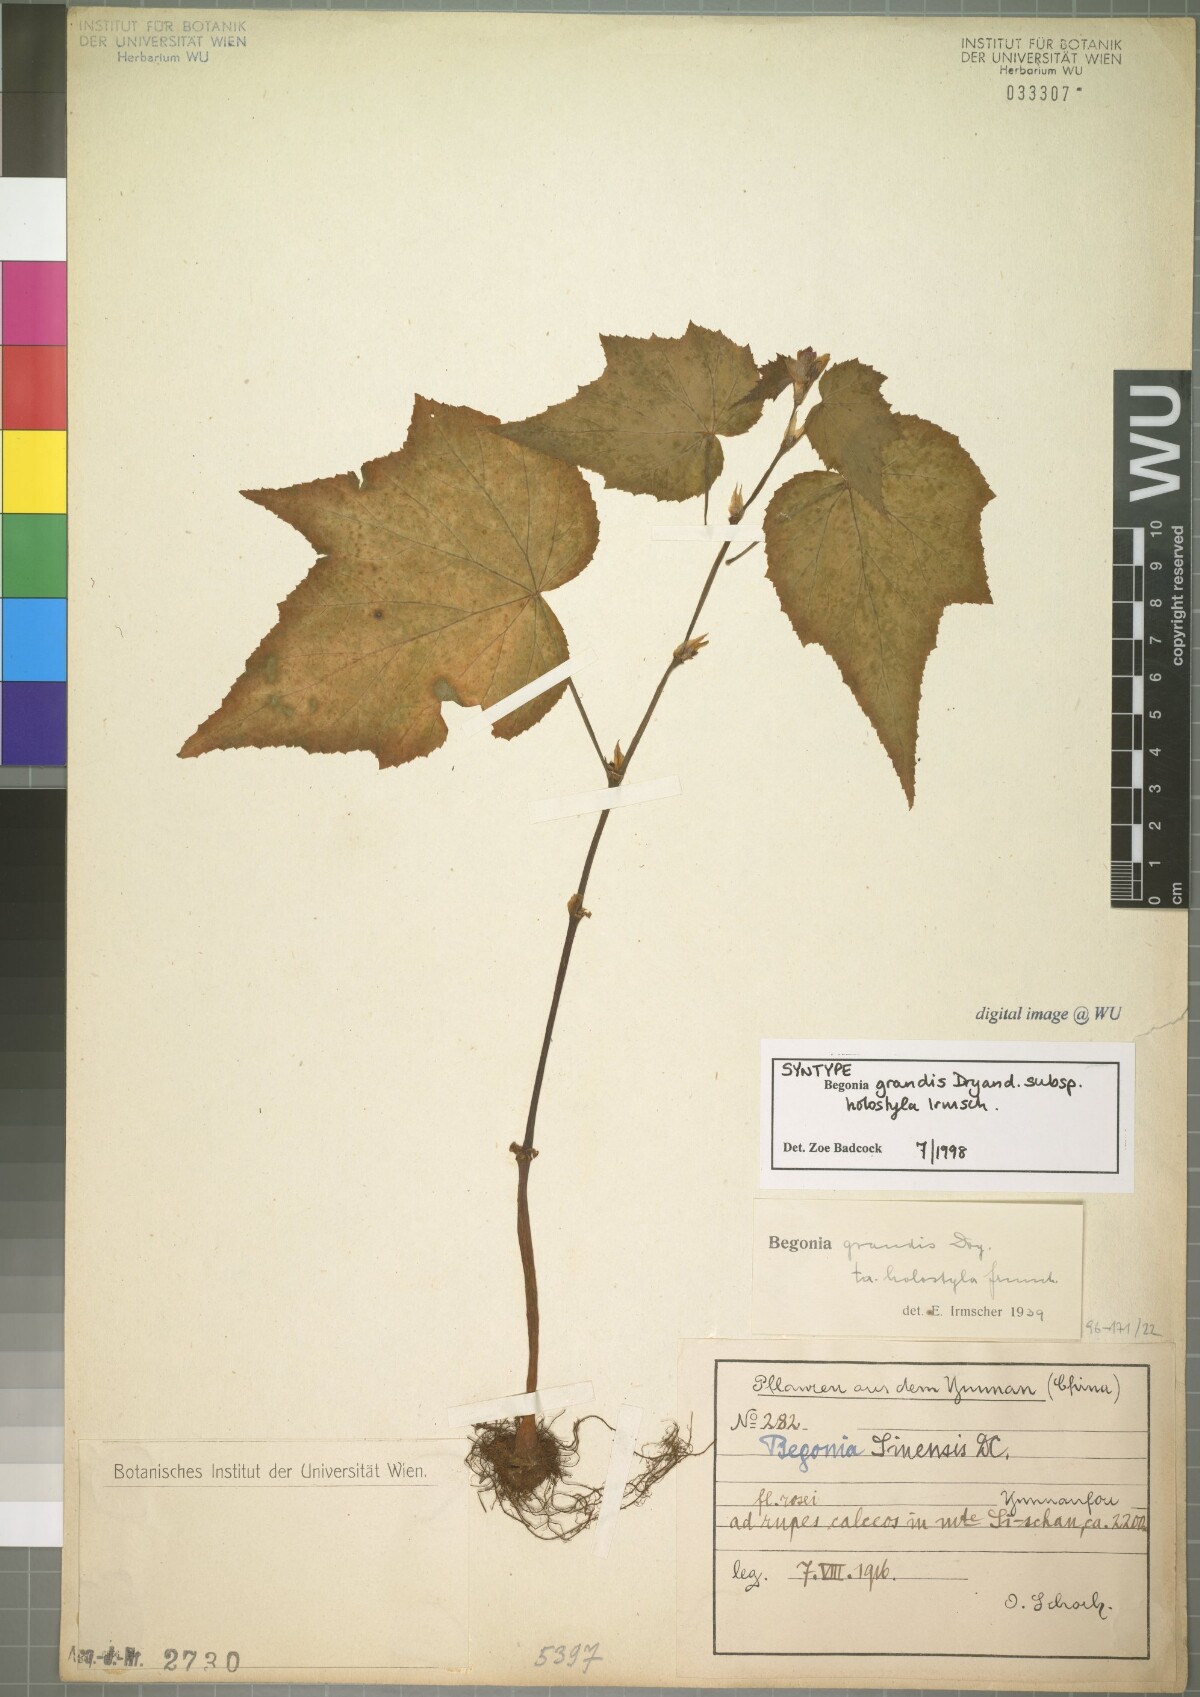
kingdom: Plantae
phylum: Tracheophyta
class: Magnoliopsida
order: Cucurbitales
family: Begoniaceae
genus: Begonia
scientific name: Begonia grandis
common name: Hardy begonia
